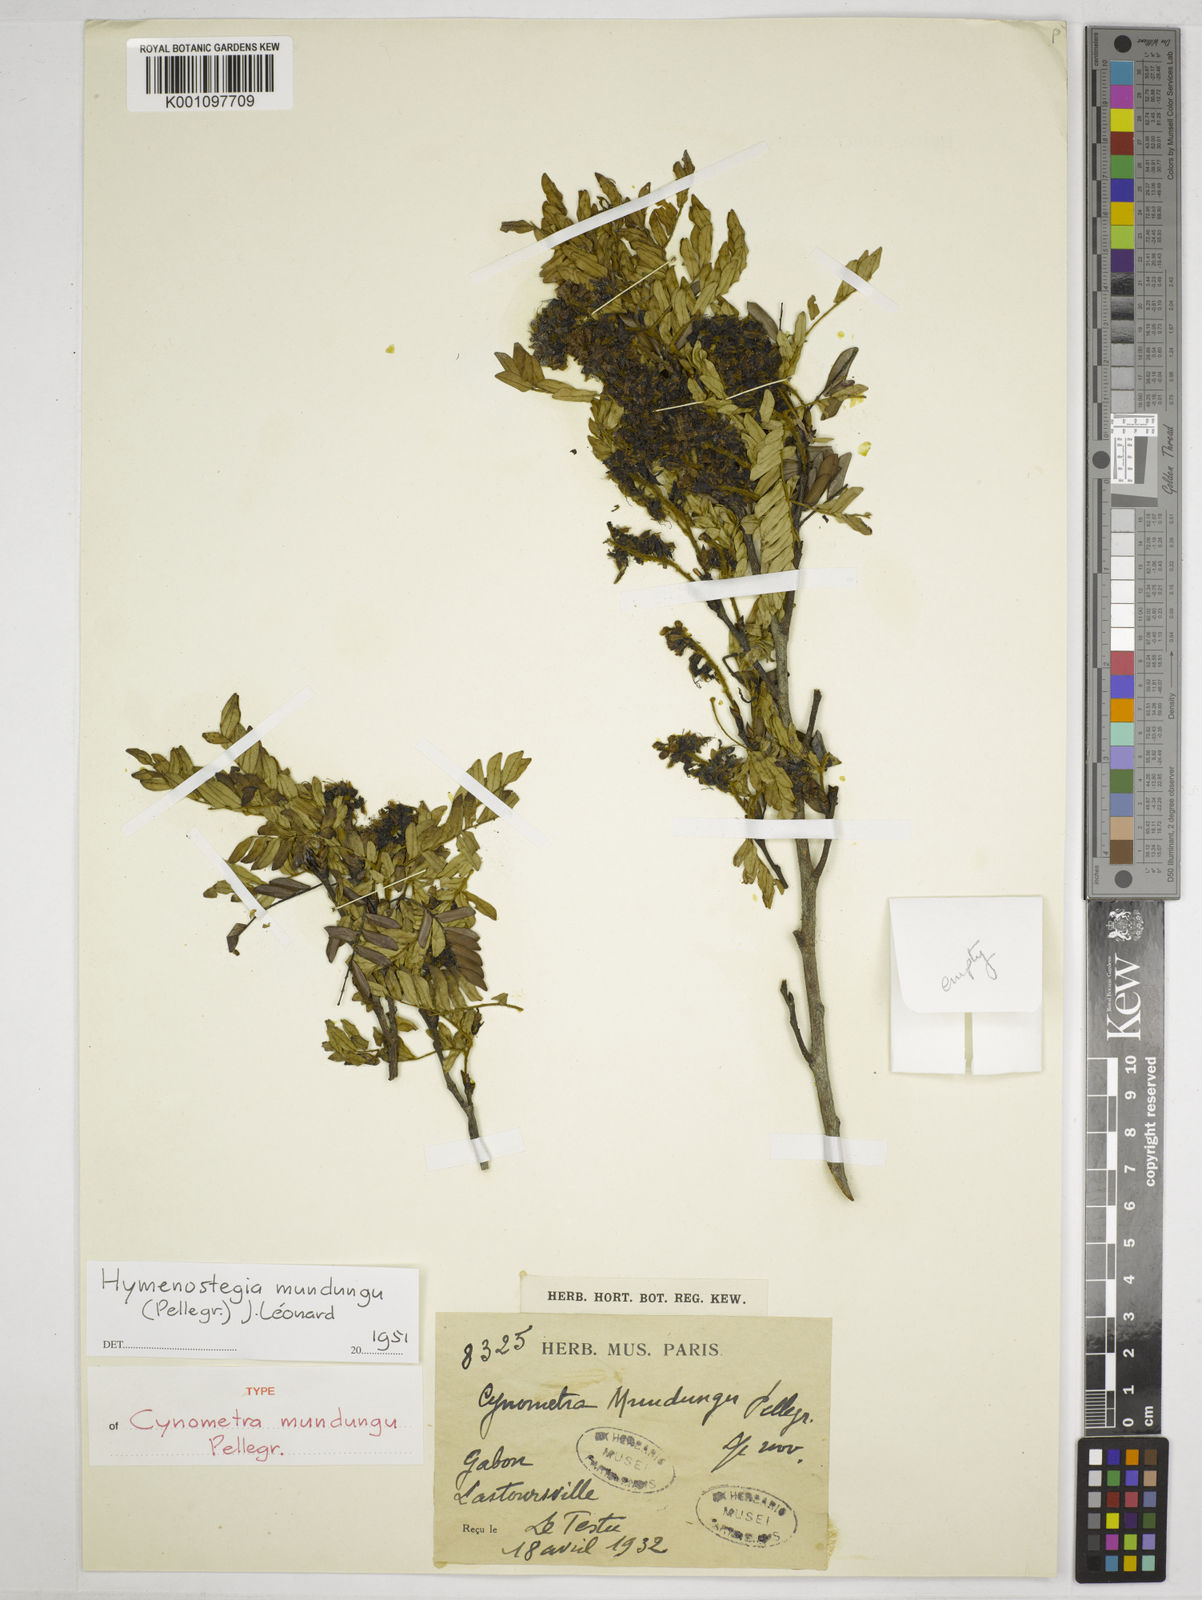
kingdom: Plantae
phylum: Tracheophyta
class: Magnoliopsida
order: Fabales
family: Fabaceae
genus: Hymenostegia
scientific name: Hymenostegia
